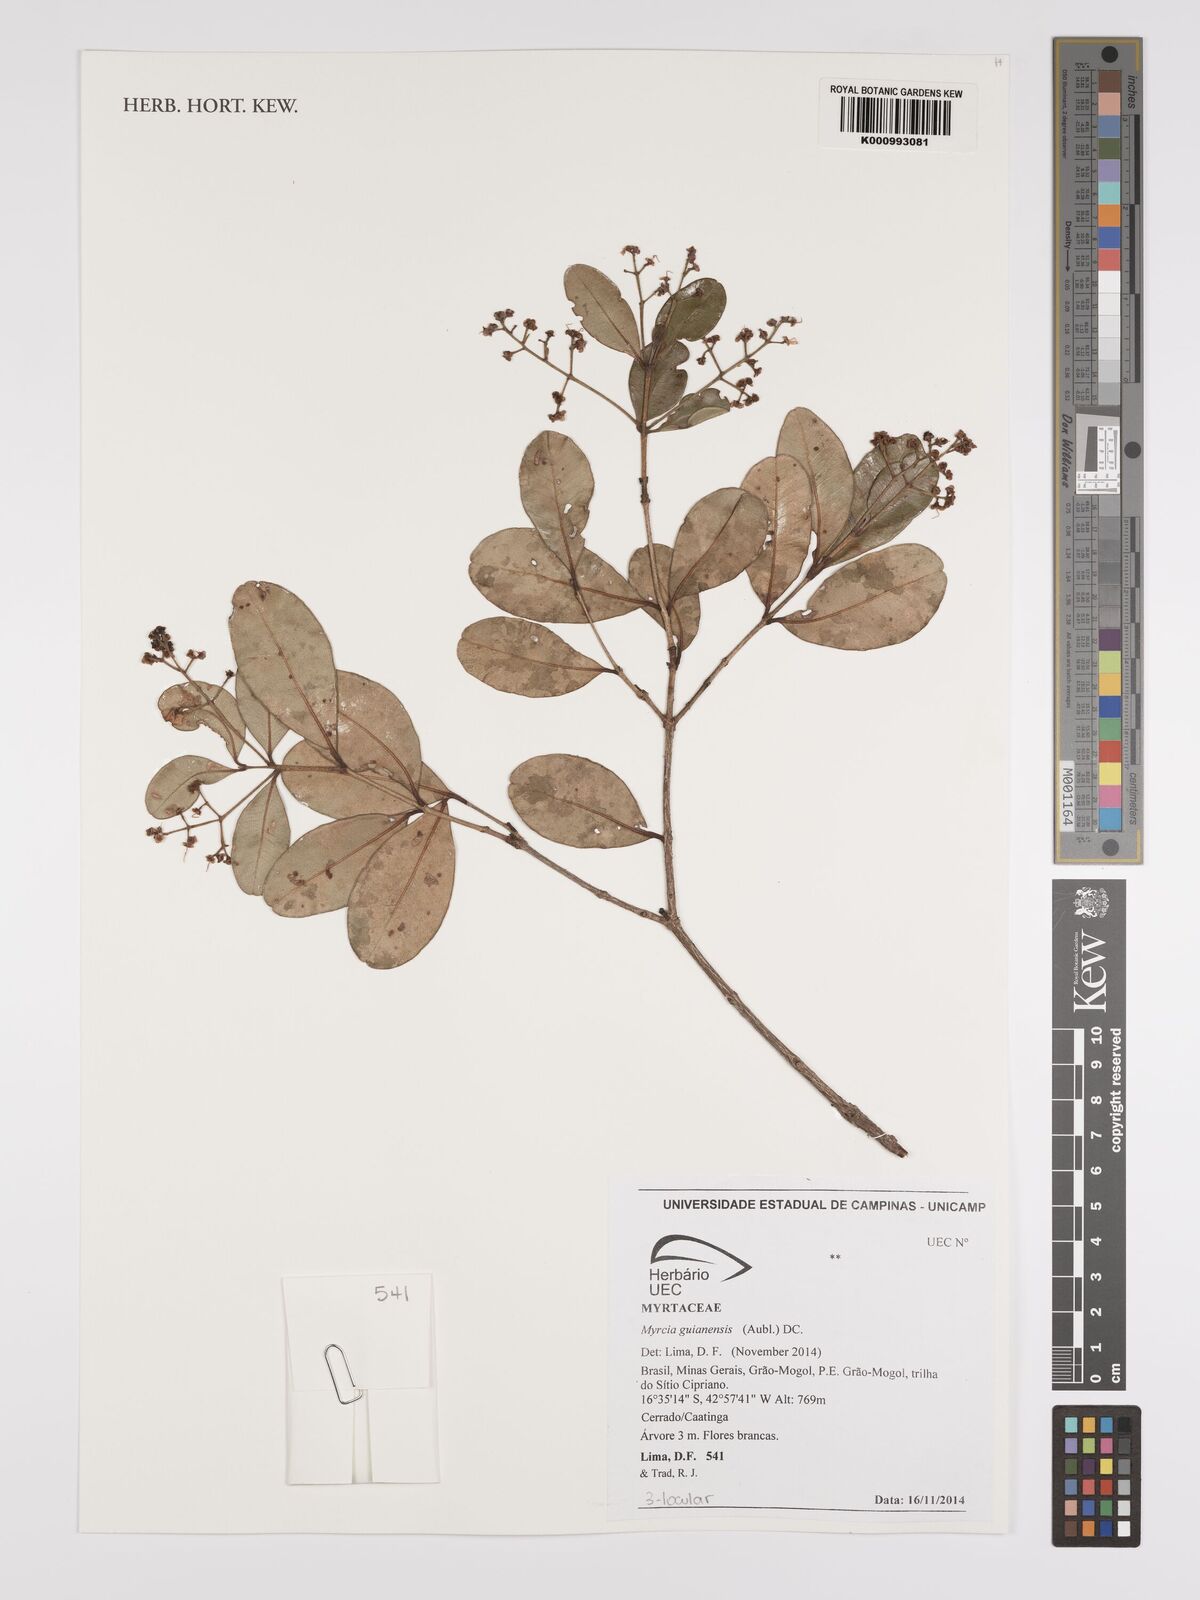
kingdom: Plantae
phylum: Tracheophyta
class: Magnoliopsida
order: Myrtales
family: Myrtaceae
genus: Myrcia
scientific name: Myrcia guianensis
